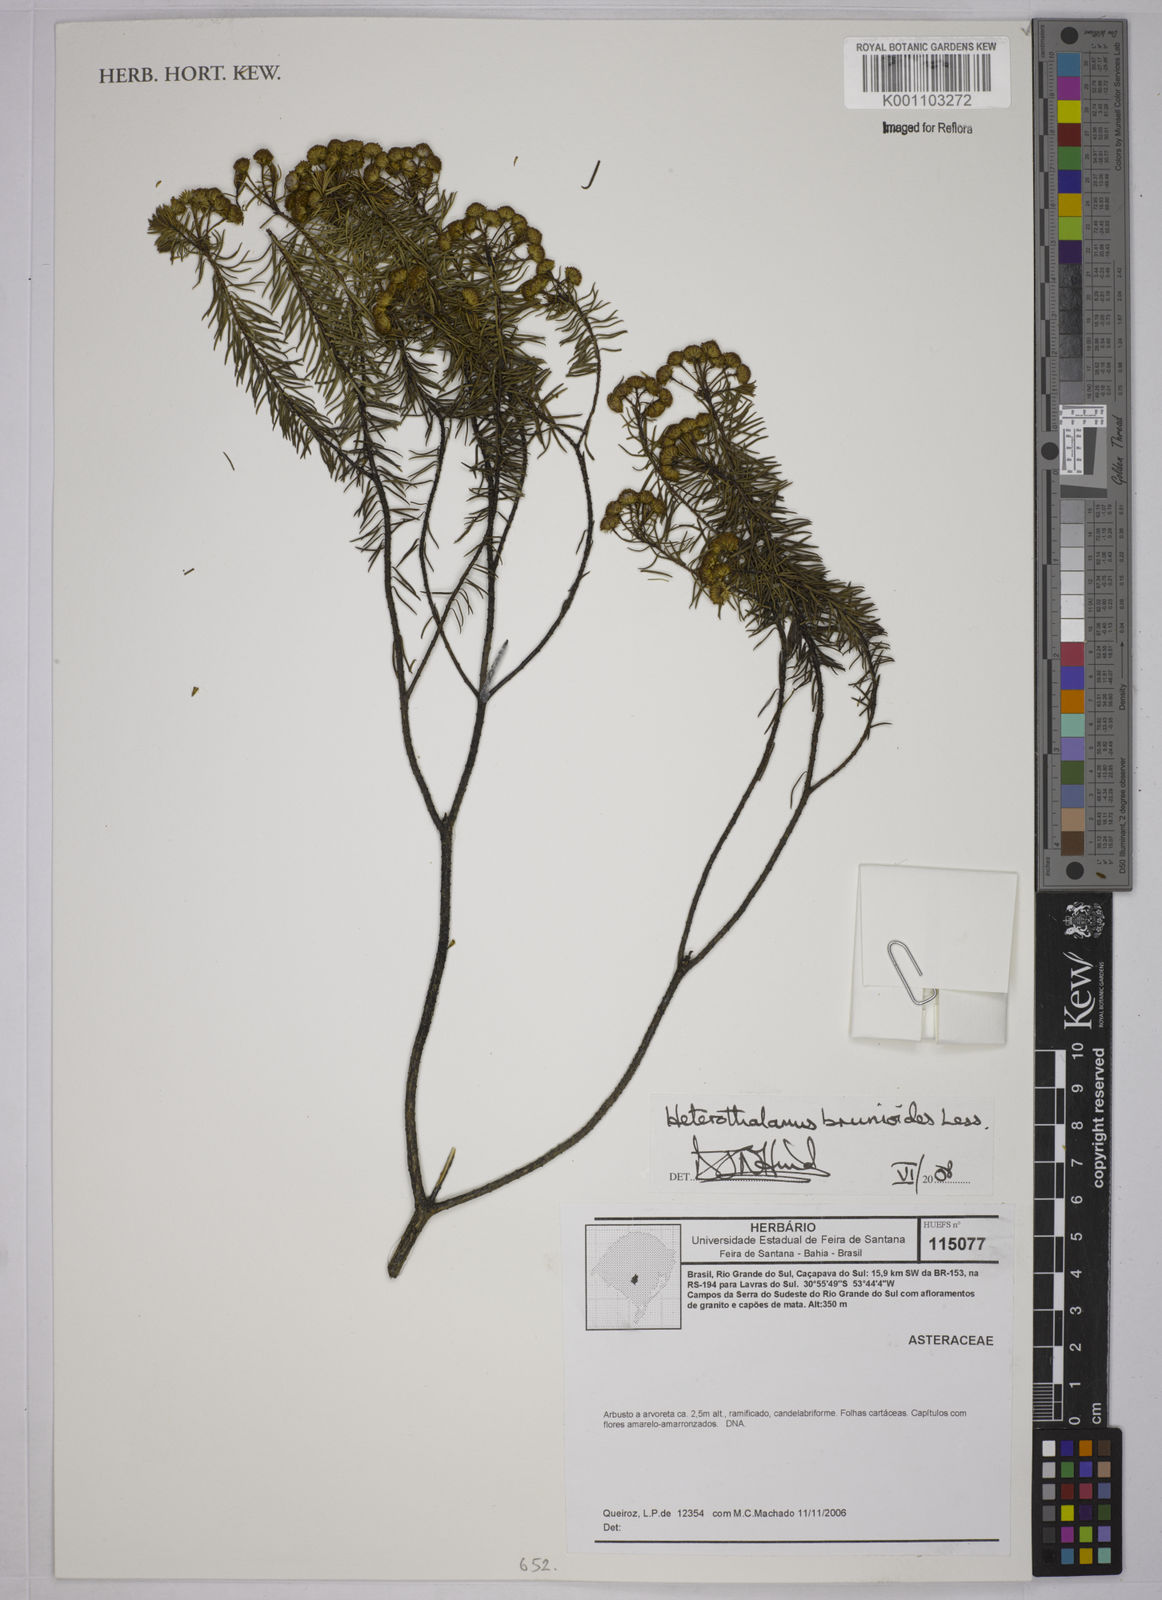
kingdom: Plantae
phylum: Tracheophyta
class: Magnoliopsida
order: Asterales
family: Asteraceae
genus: Baccharis
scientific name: Baccharis aliena
